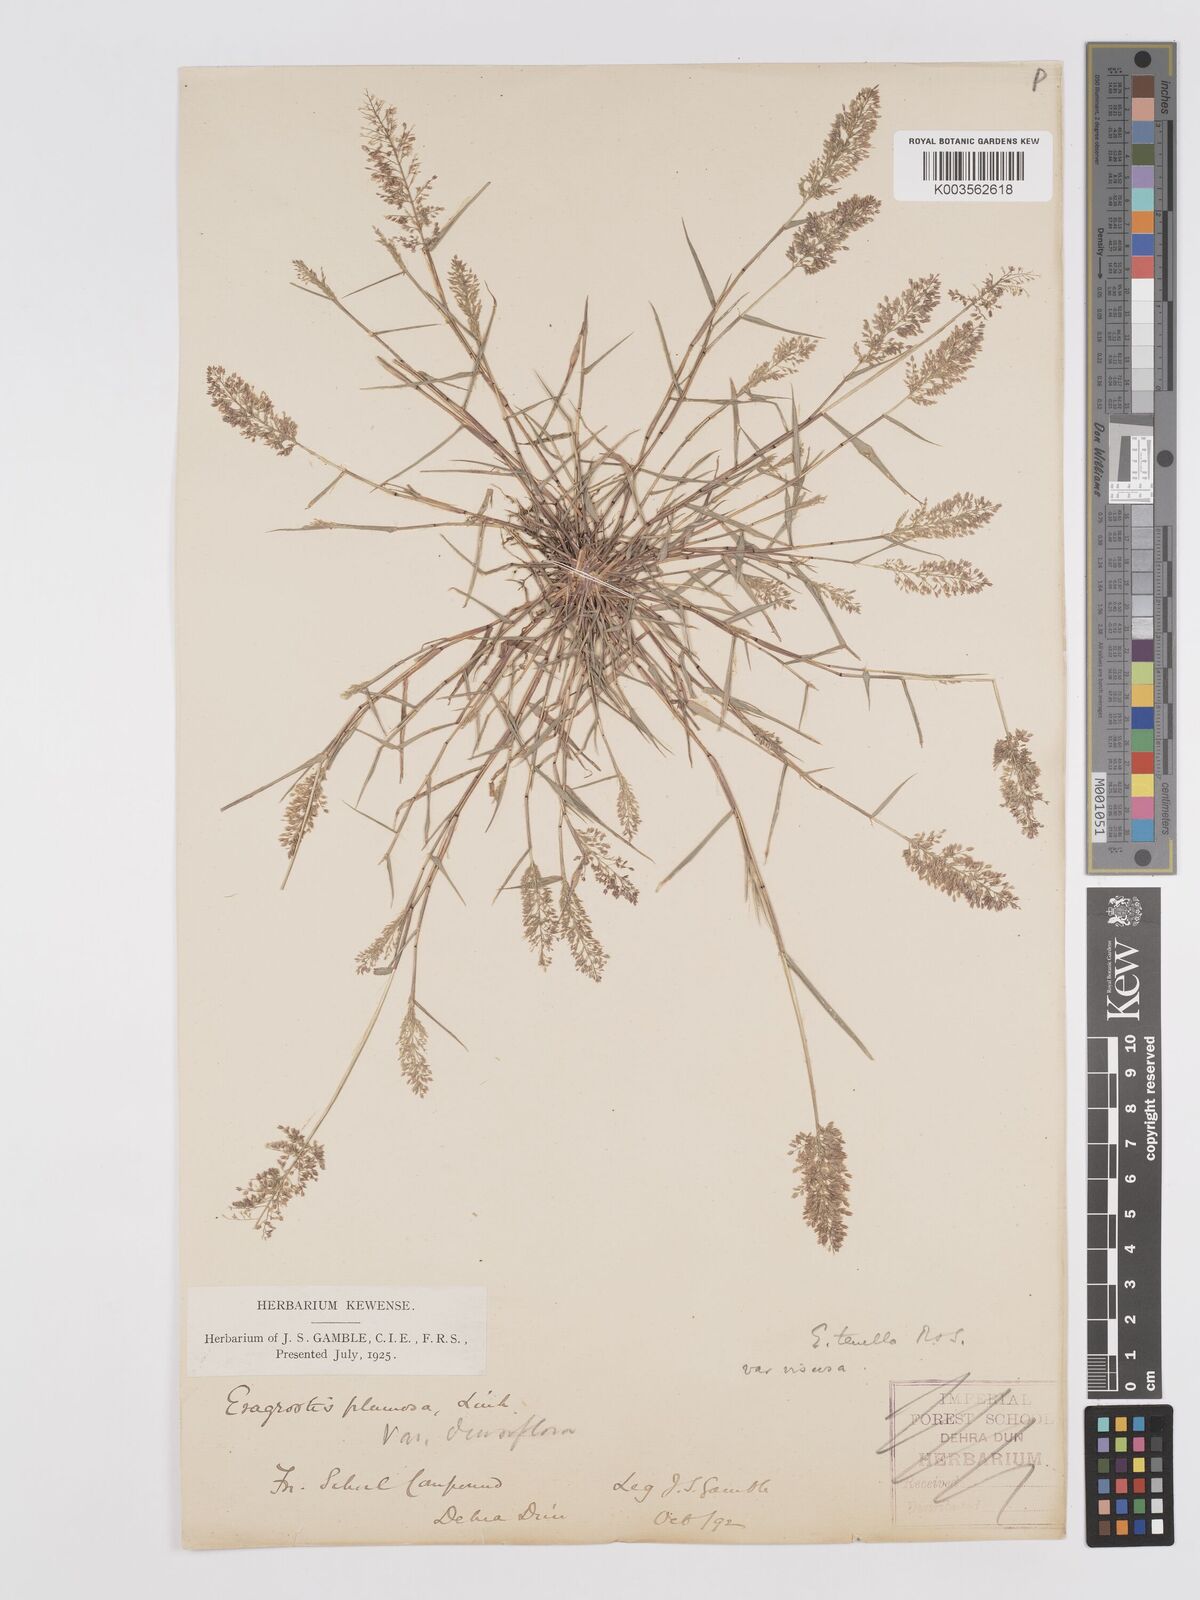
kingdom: Plantae
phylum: Tracheophyta
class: Liliopsida
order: Poales
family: Poaceae
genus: Eragrostis
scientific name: Eragrostis tenella
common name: Japanese lovegrass
